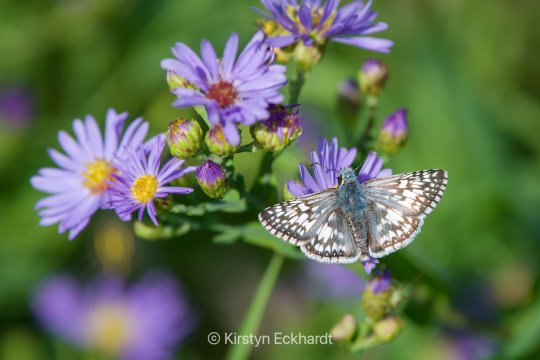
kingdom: Animalia
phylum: Arthropoda
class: Insecta
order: Lepidoptera
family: Hesperiidae
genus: Pyrgus
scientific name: Pyrgus communis
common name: Common Checkered-Skipper
